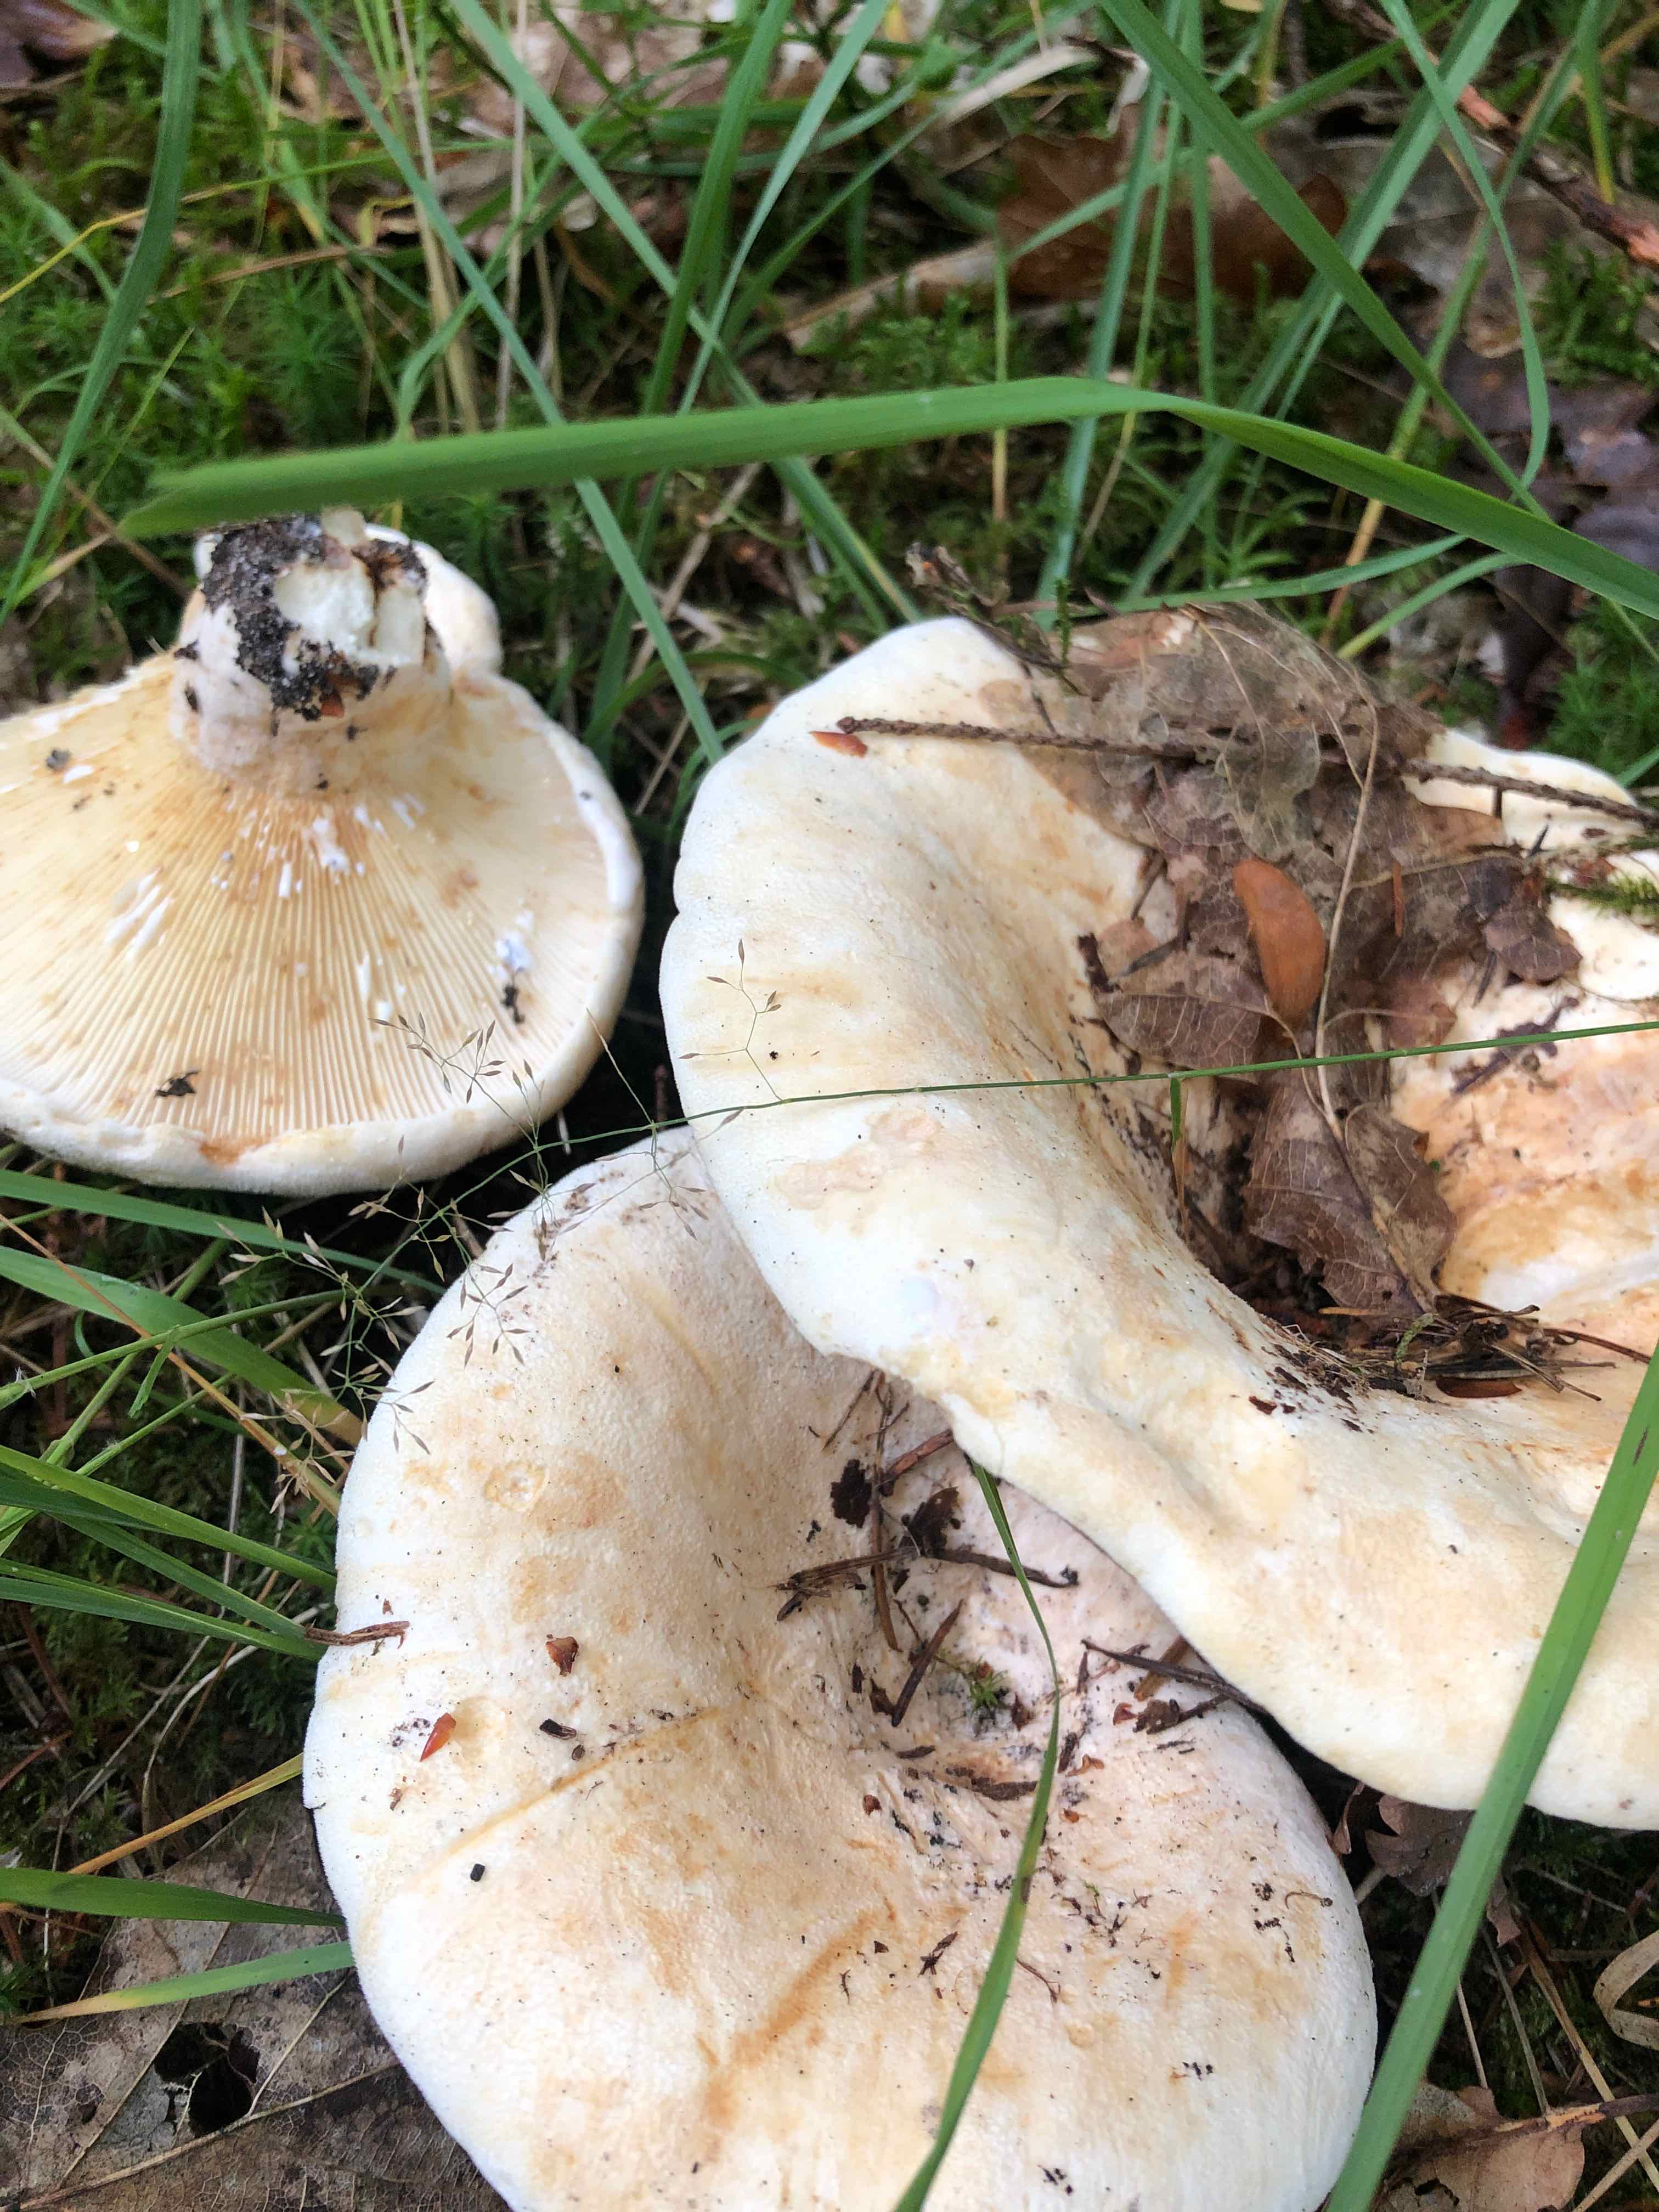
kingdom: Fungi
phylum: Basidiomycota
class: Agaricomycetes
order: Russulales
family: Russulaceae
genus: Lactifluus
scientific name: Lactifluus
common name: mælkehat
